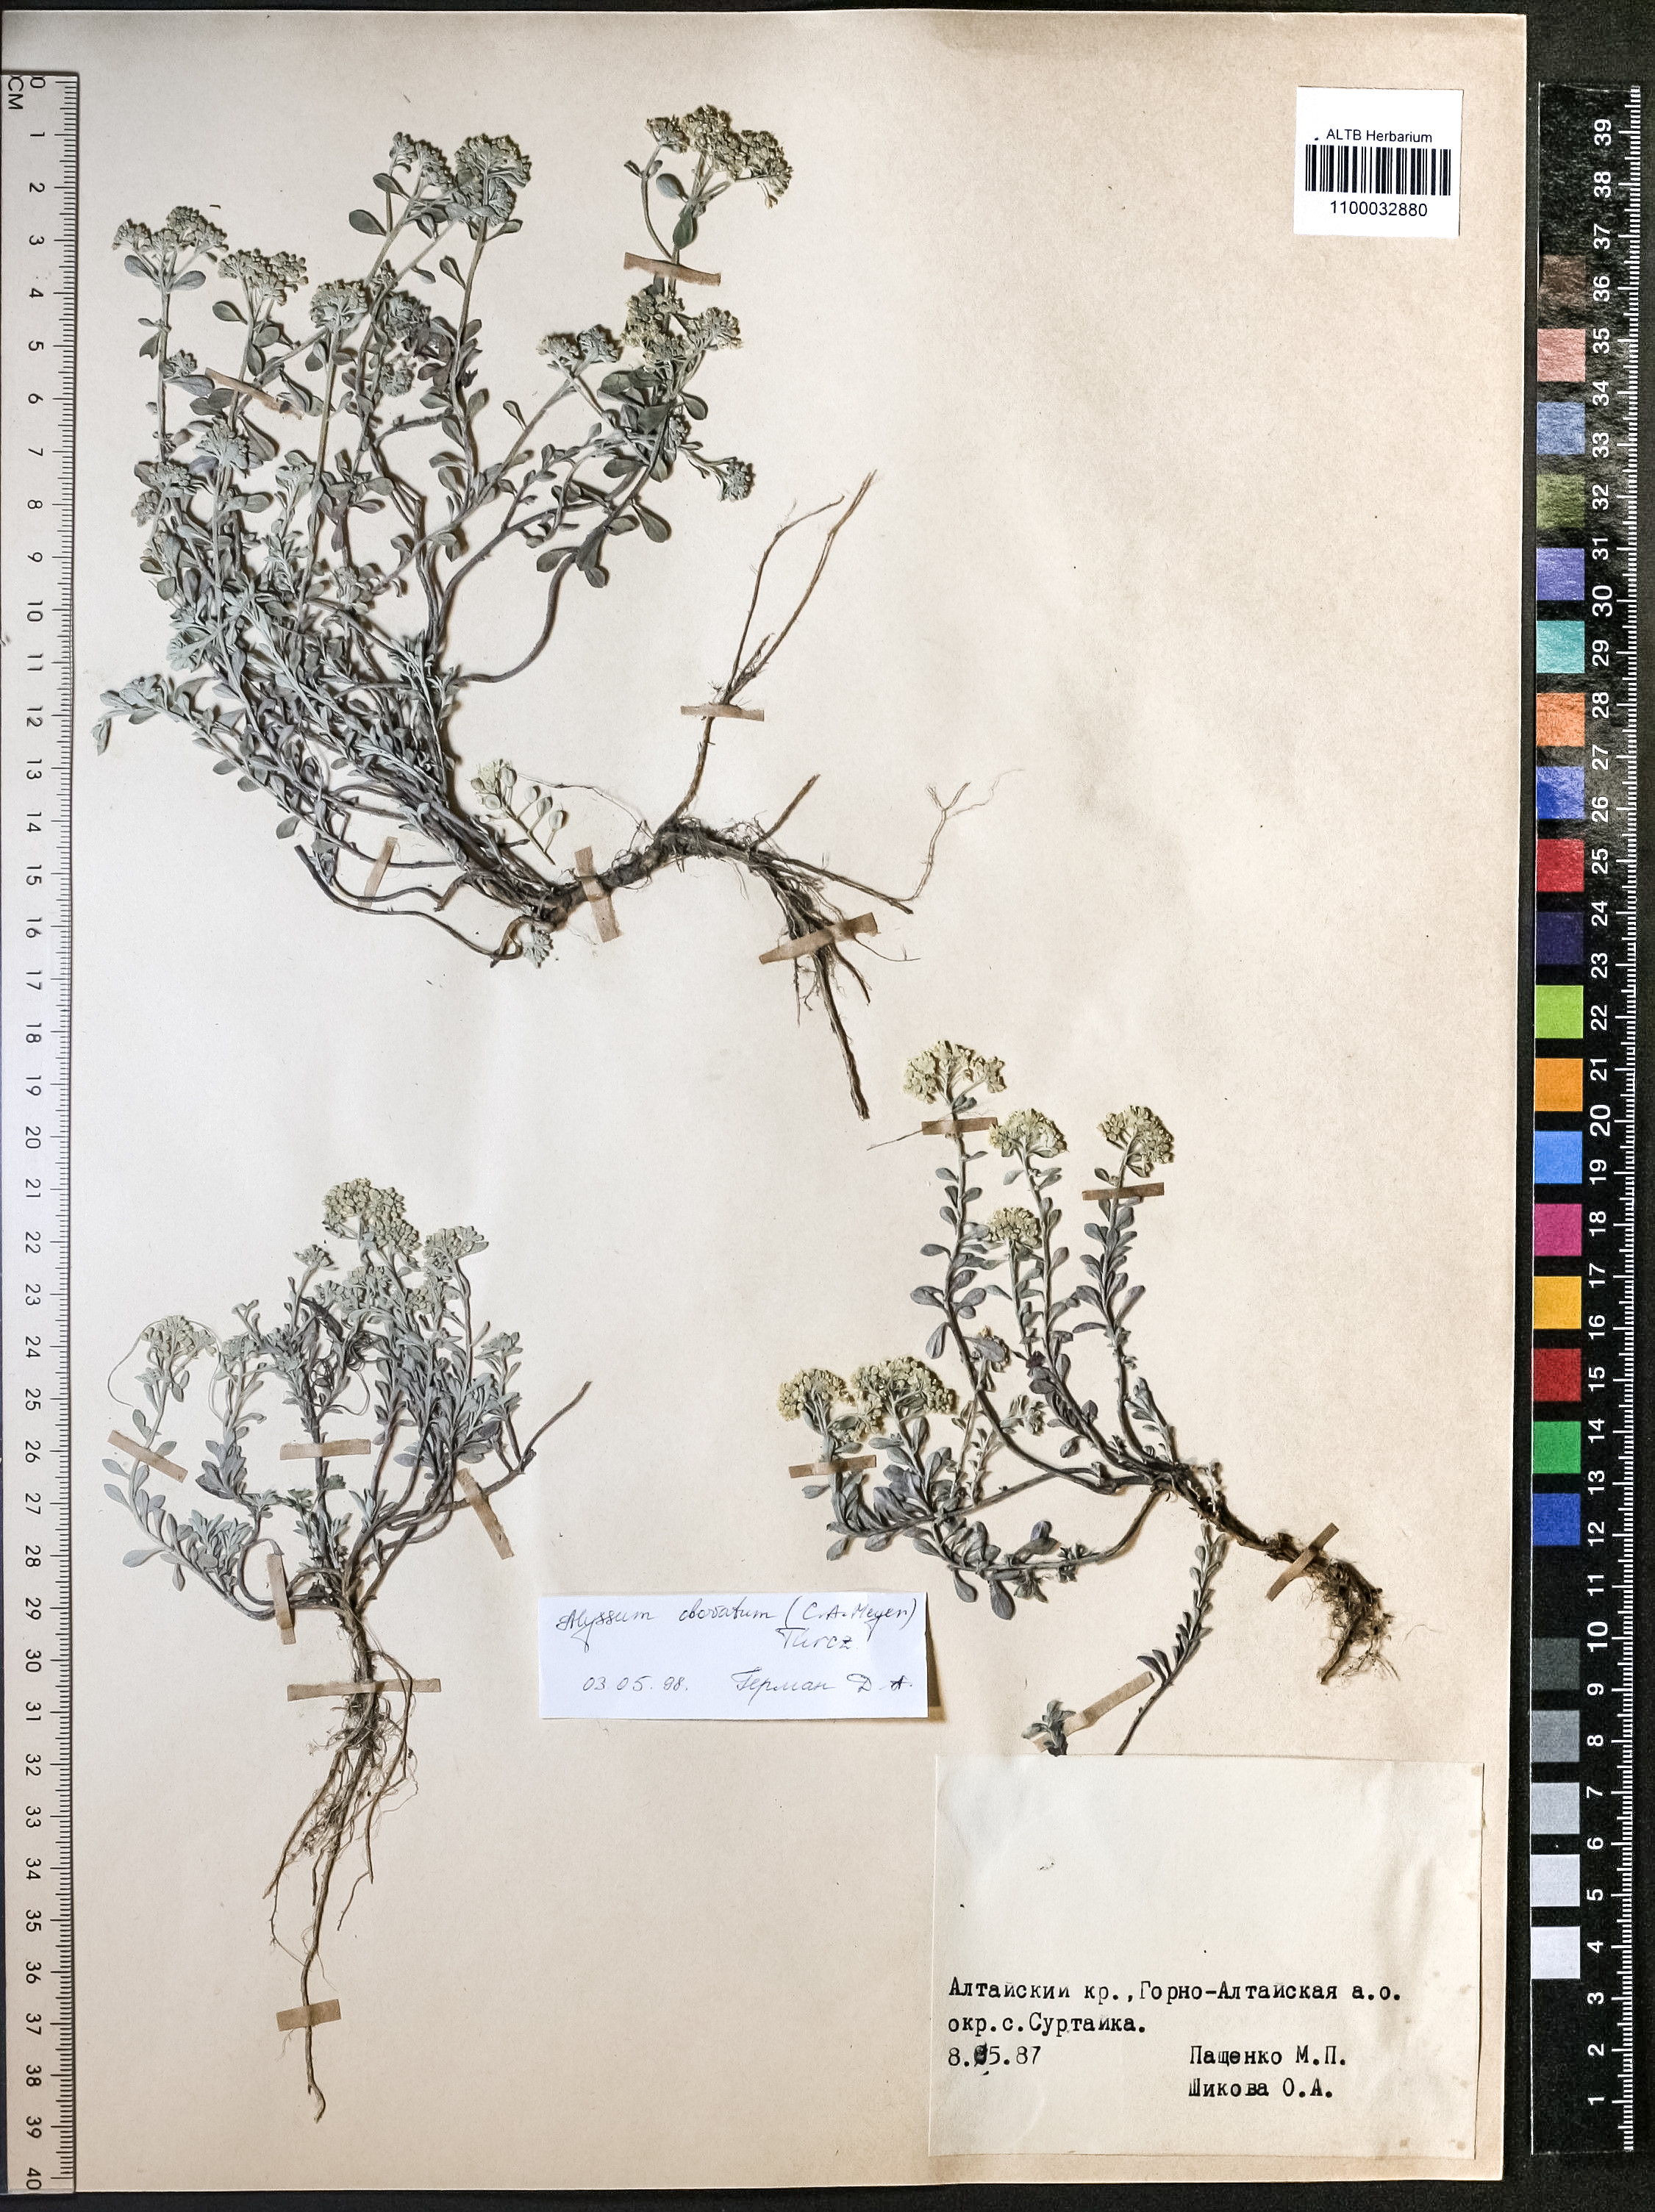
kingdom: Plantae
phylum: Tracheophyta
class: Magnoliopsida
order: Brassicales
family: Brassicaceae
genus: Odontarrhena
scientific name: Odontarrhena obovata
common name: American alyssum
